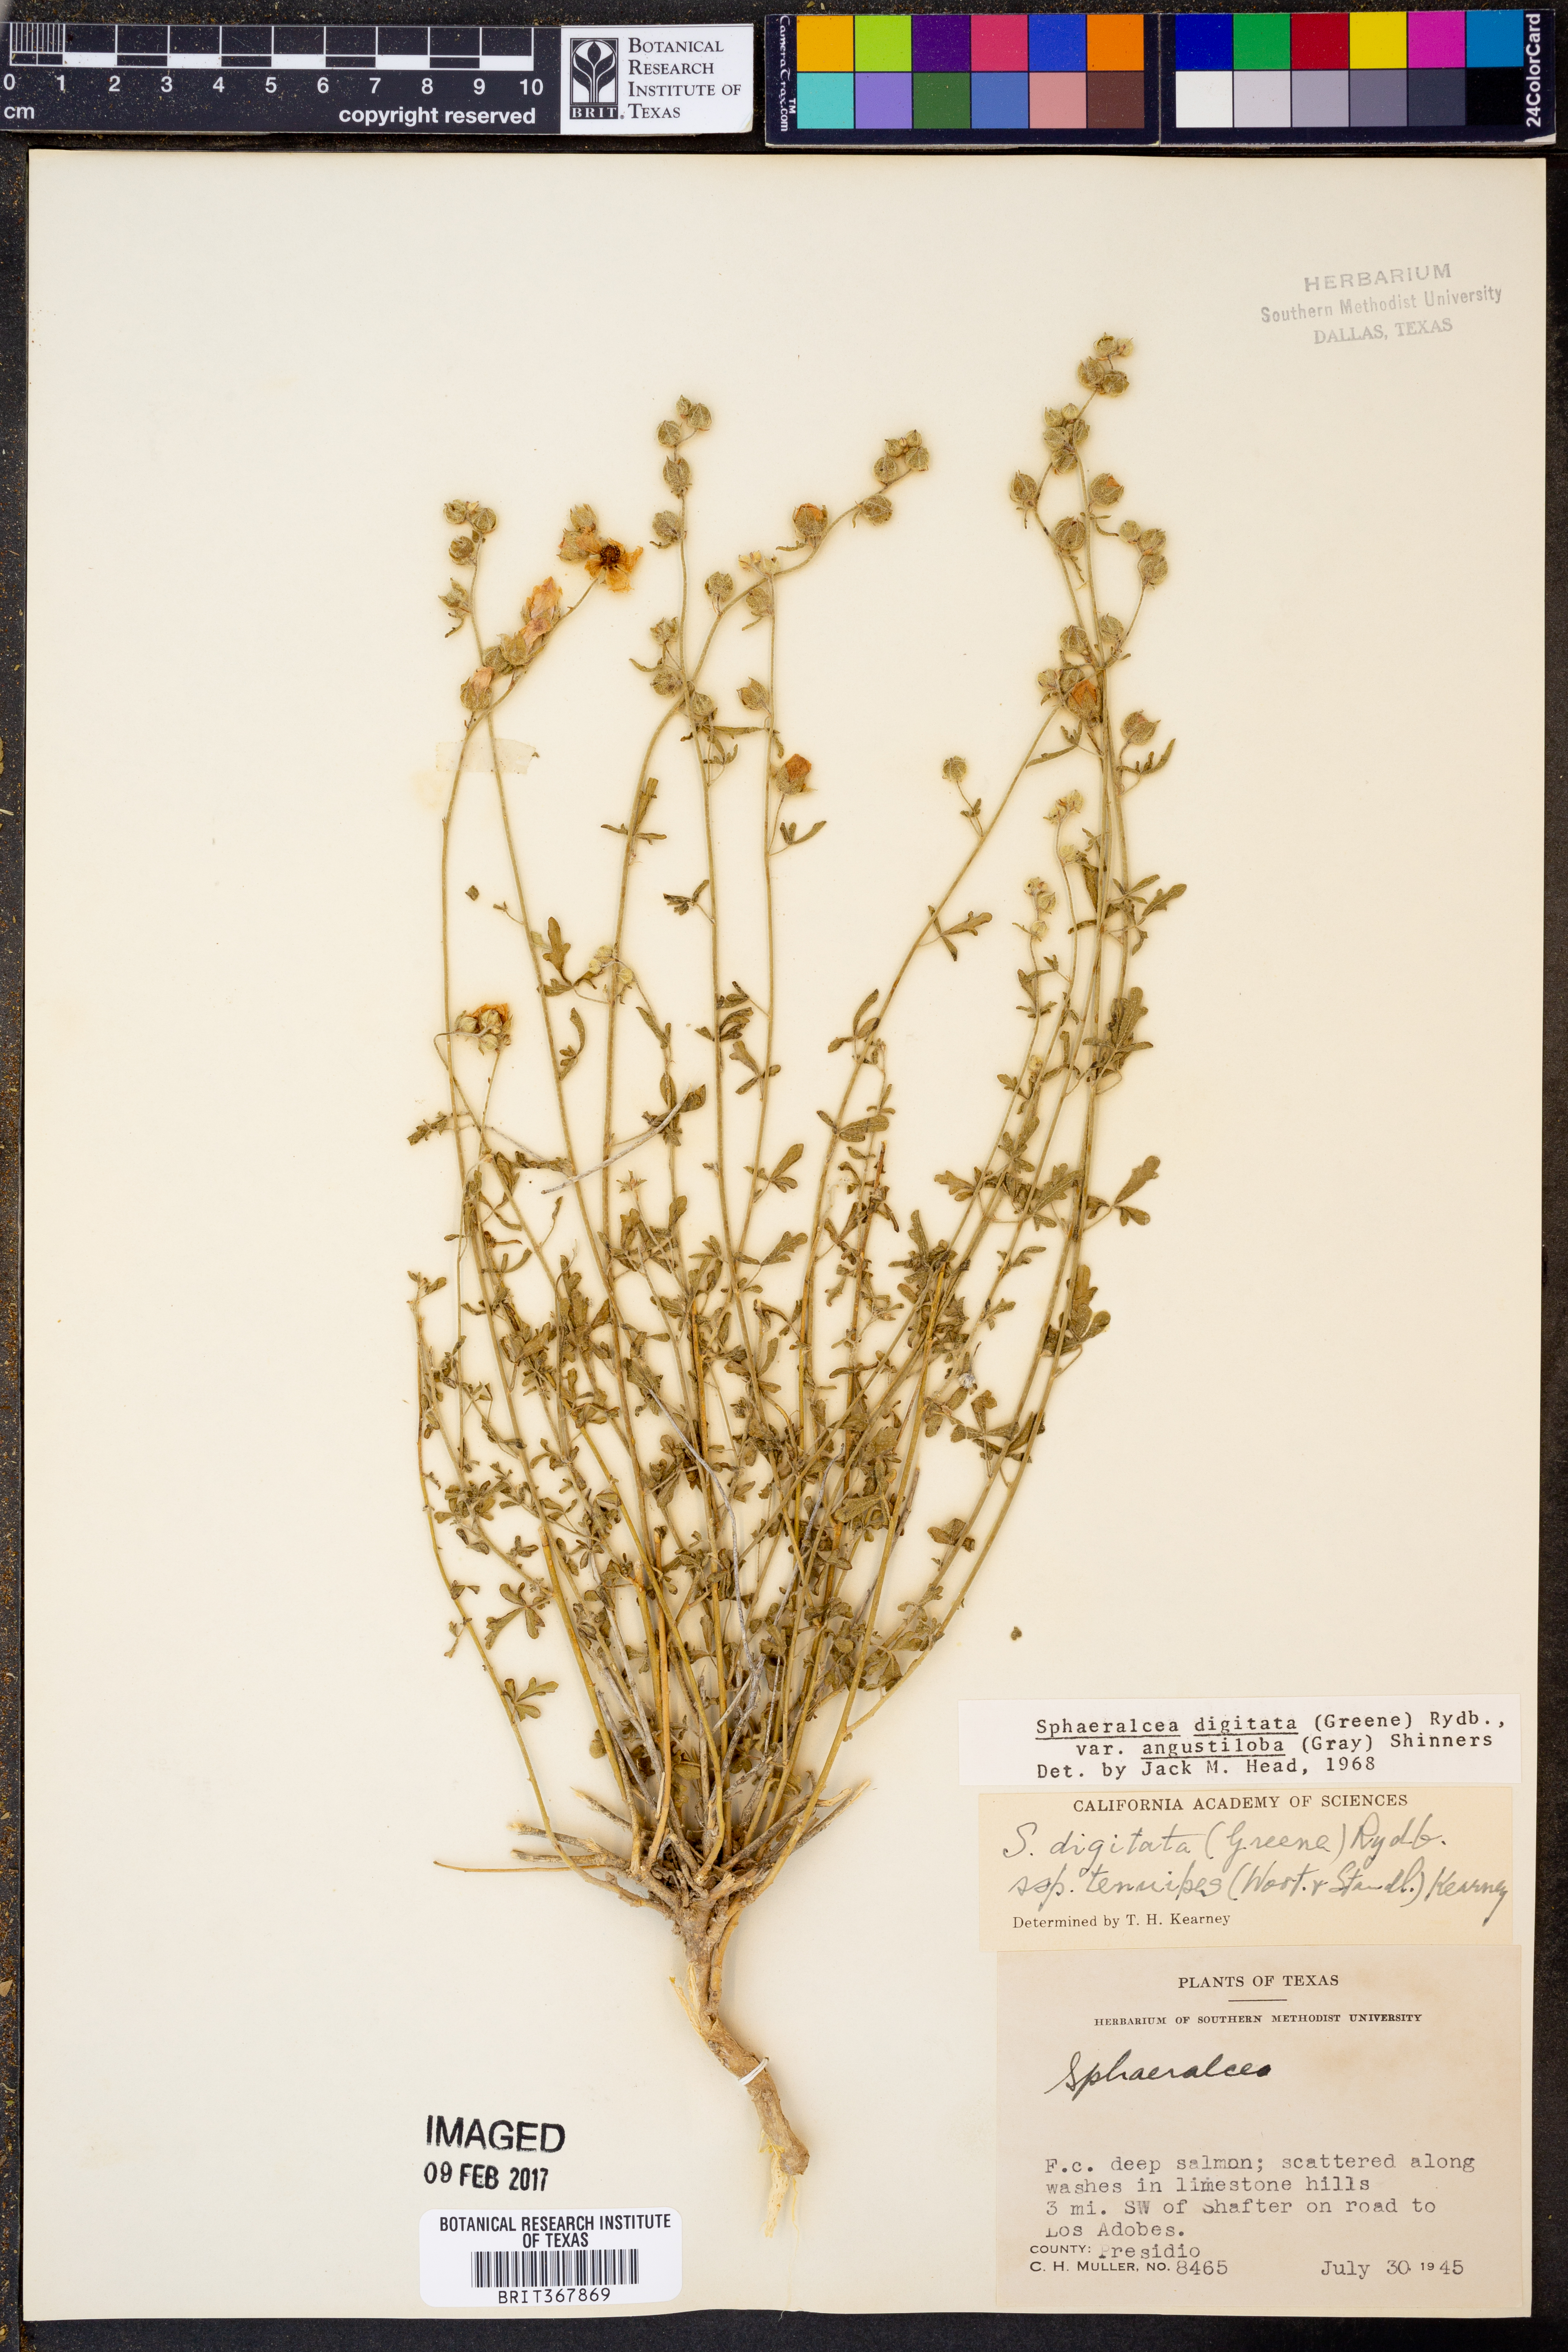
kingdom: Plantae
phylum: Tracheophyta
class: Magnoliopsida
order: Malvales
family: Malvaceae
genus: Sphaeralcea
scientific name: Sphaeralcea digitata
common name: Juniper-gobe-mallow
